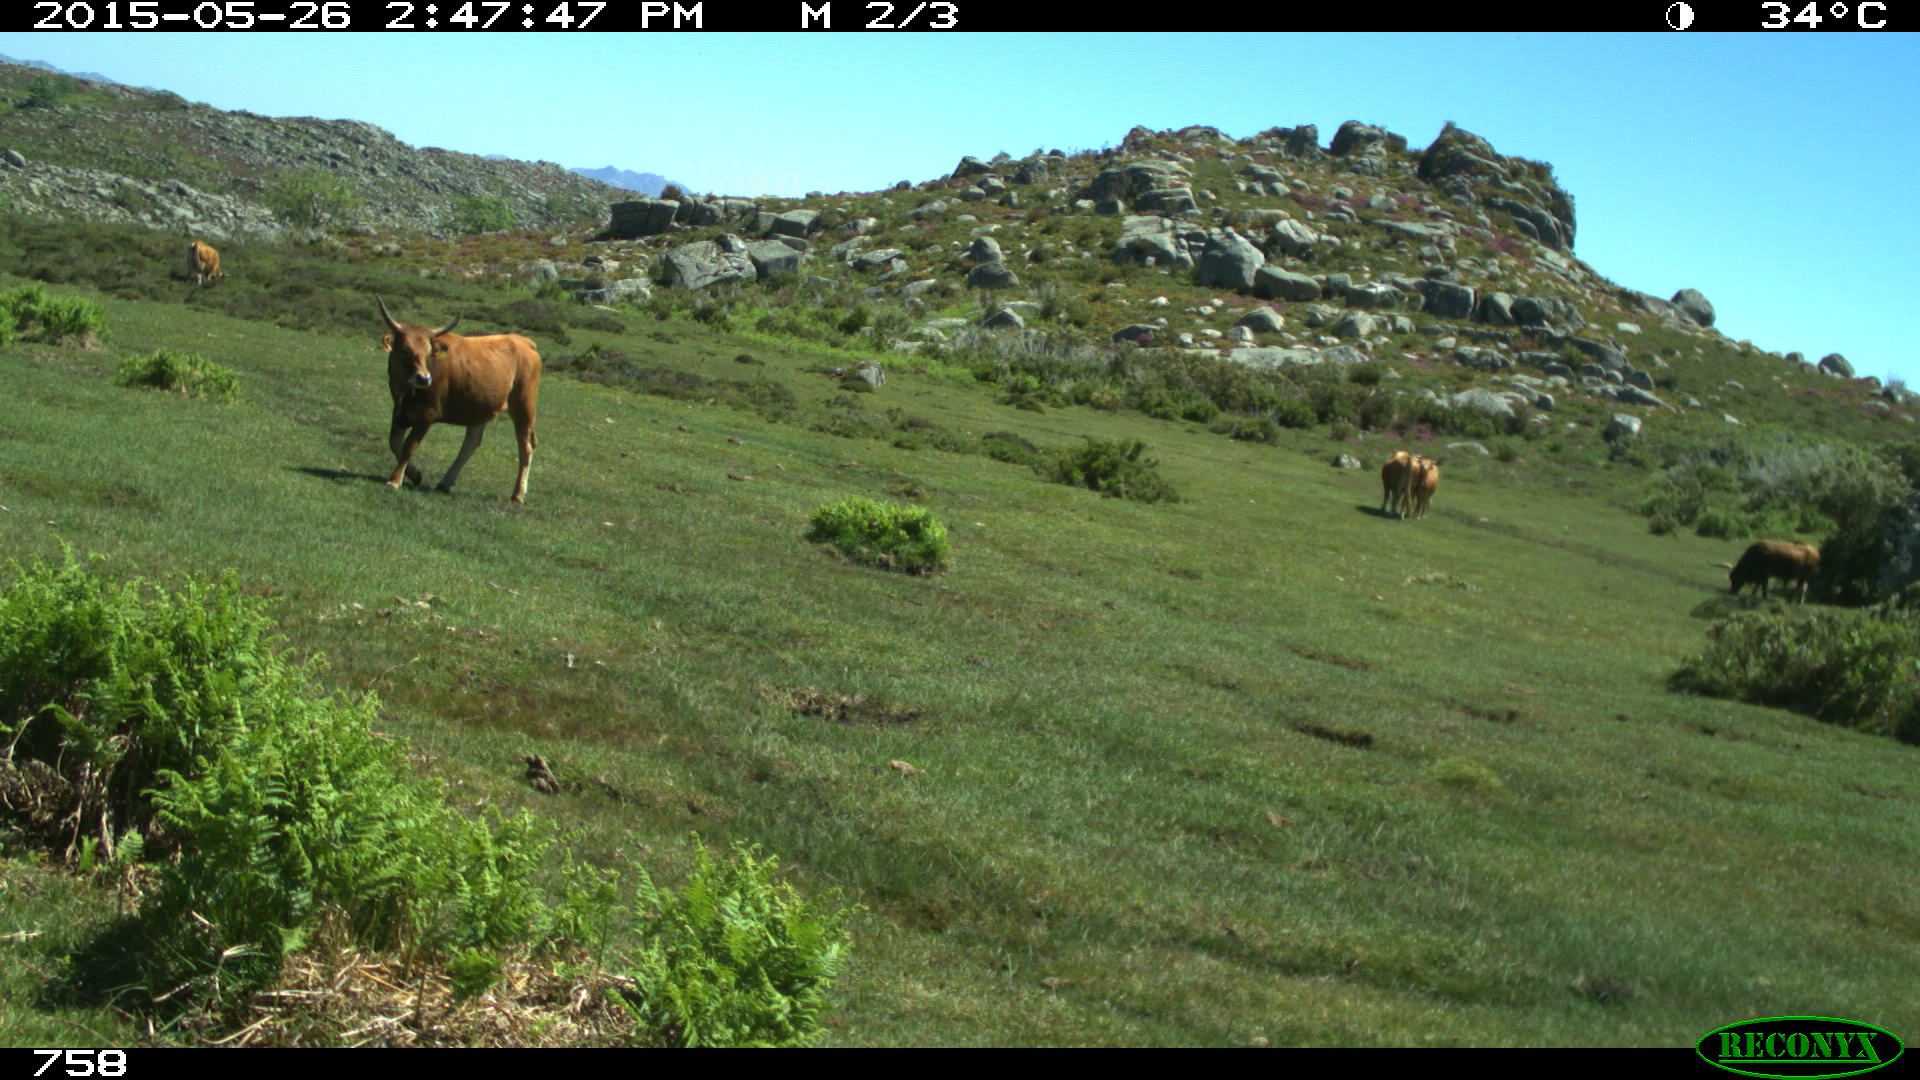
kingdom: Animalia
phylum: Chordata
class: Mammalia
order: Artiodactyla
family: Bovidae
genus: Bos
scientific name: Bos taurus
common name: Domesticated cattle
